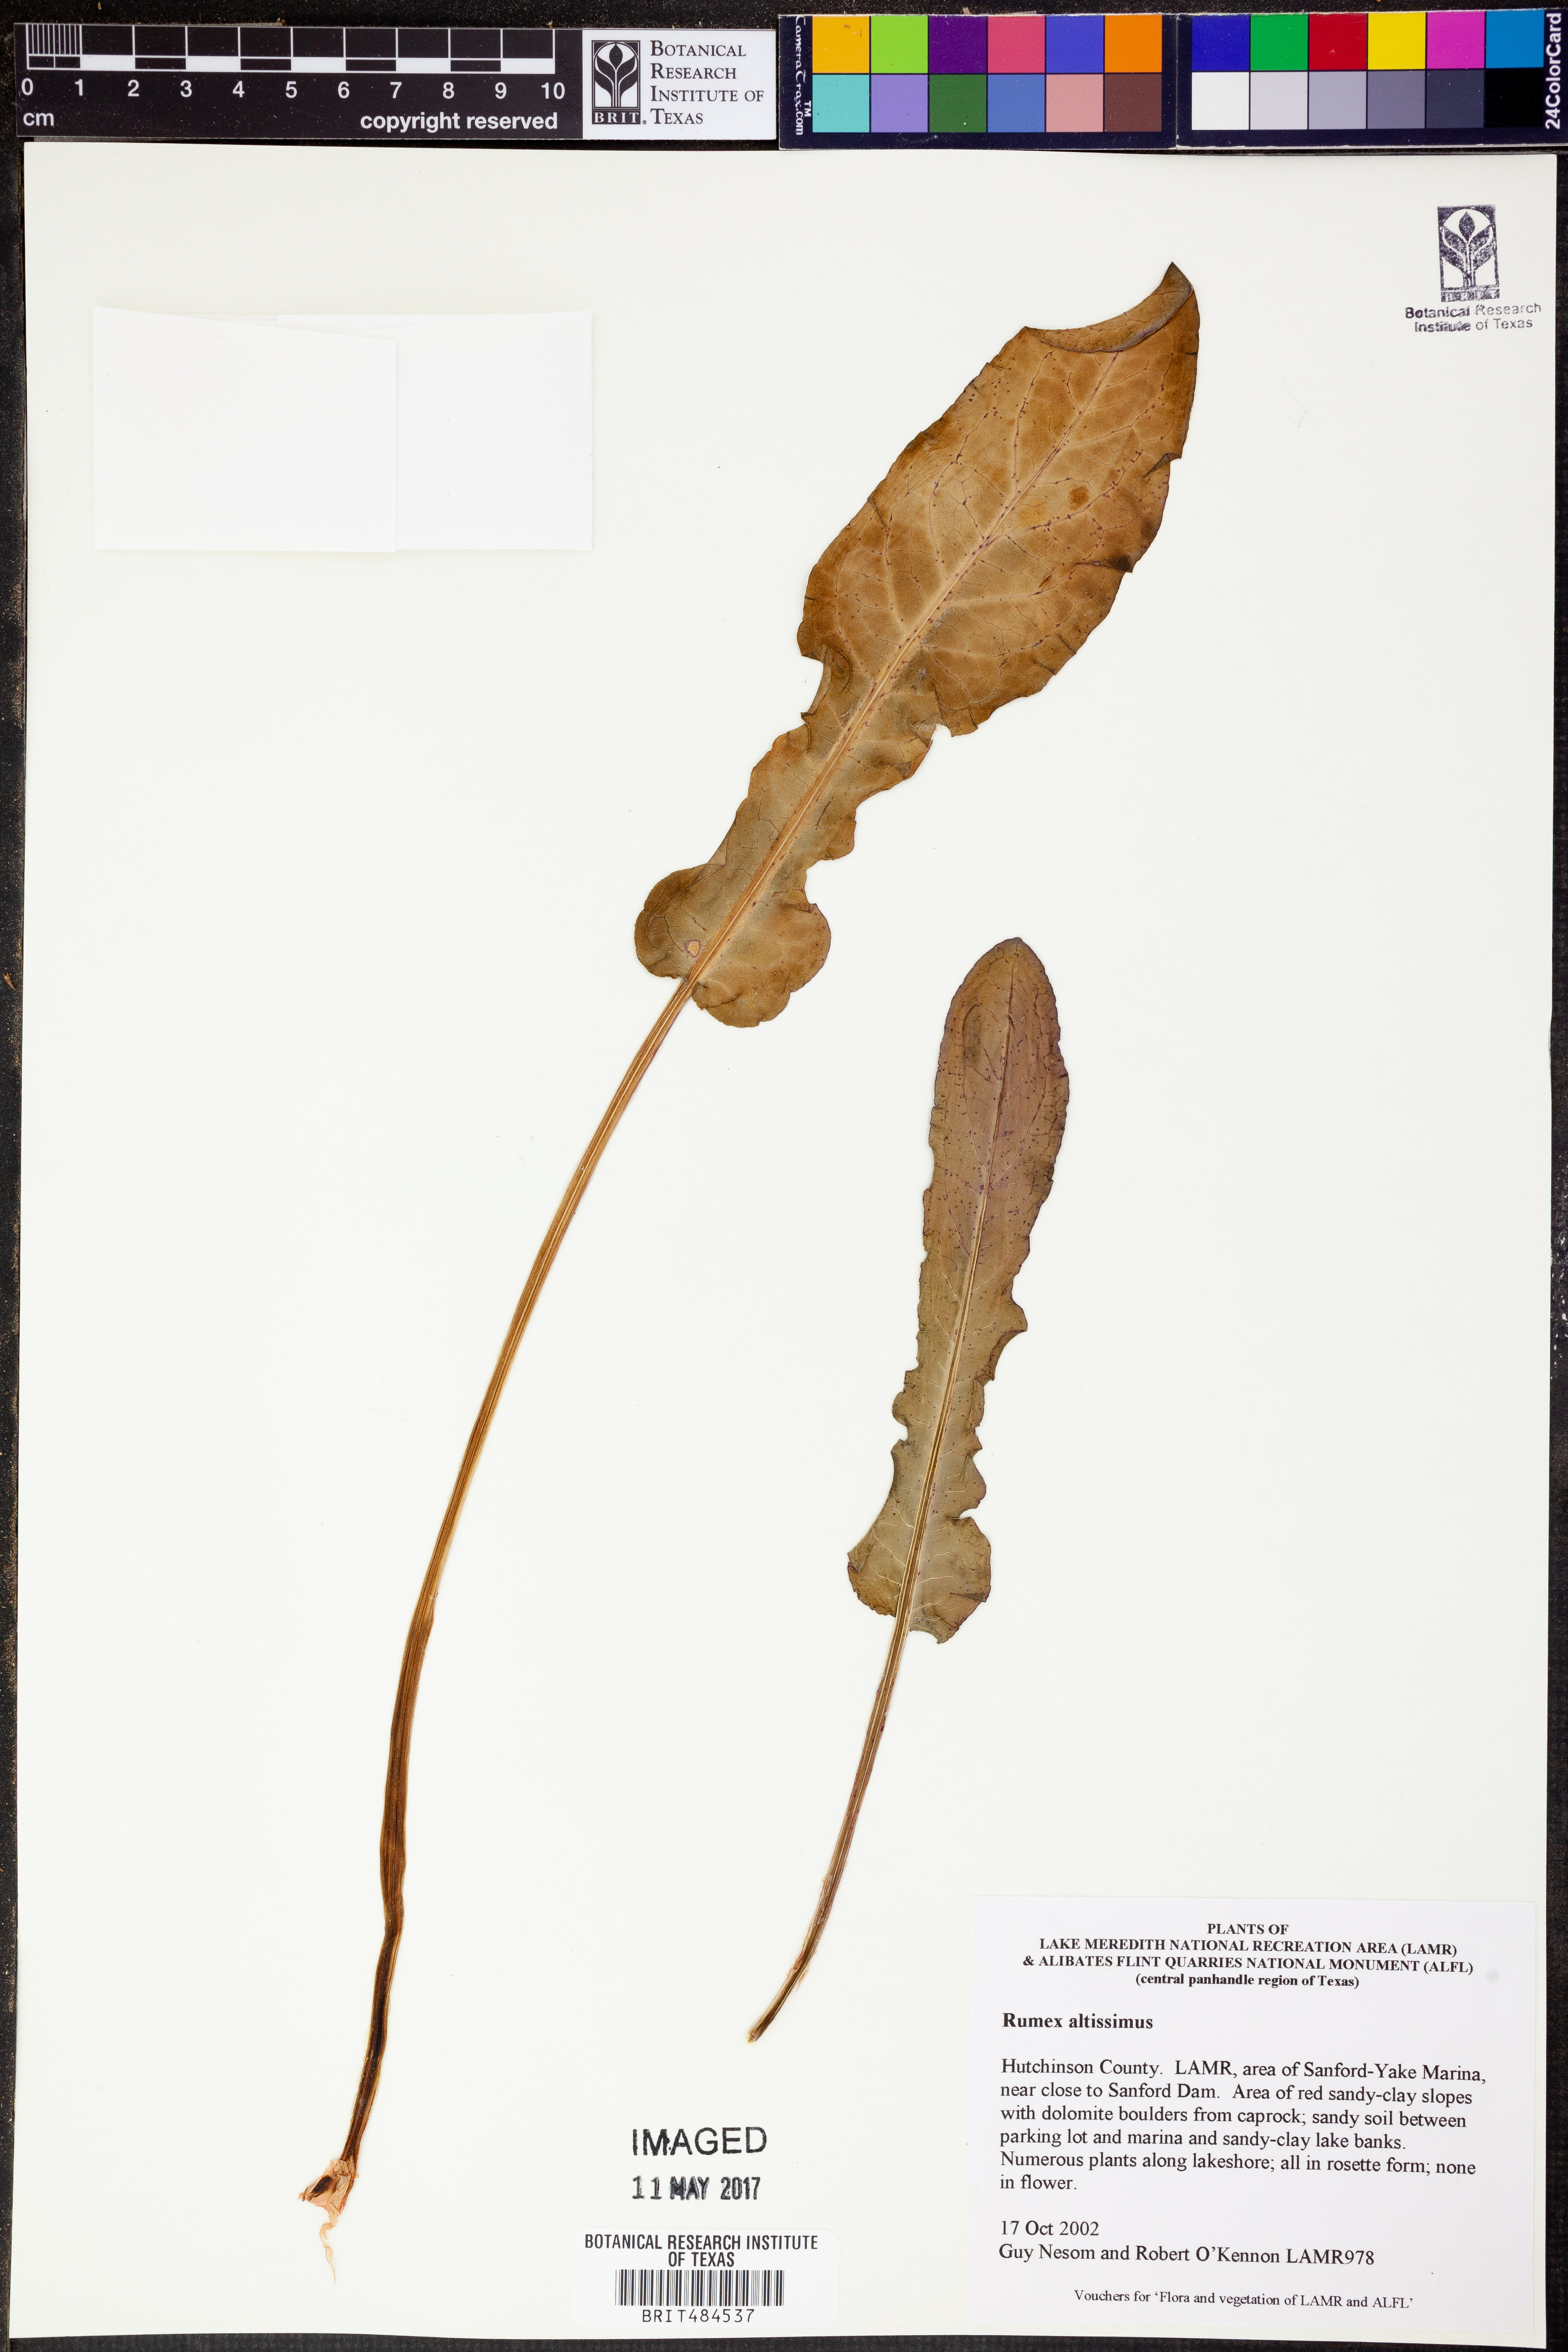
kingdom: Plantae
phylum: Tracheophyta
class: Magnoliopsida
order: Caryophyllales
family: Polygonaceae
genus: Rumex
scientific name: Rumex altissimus
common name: Smooth dock
